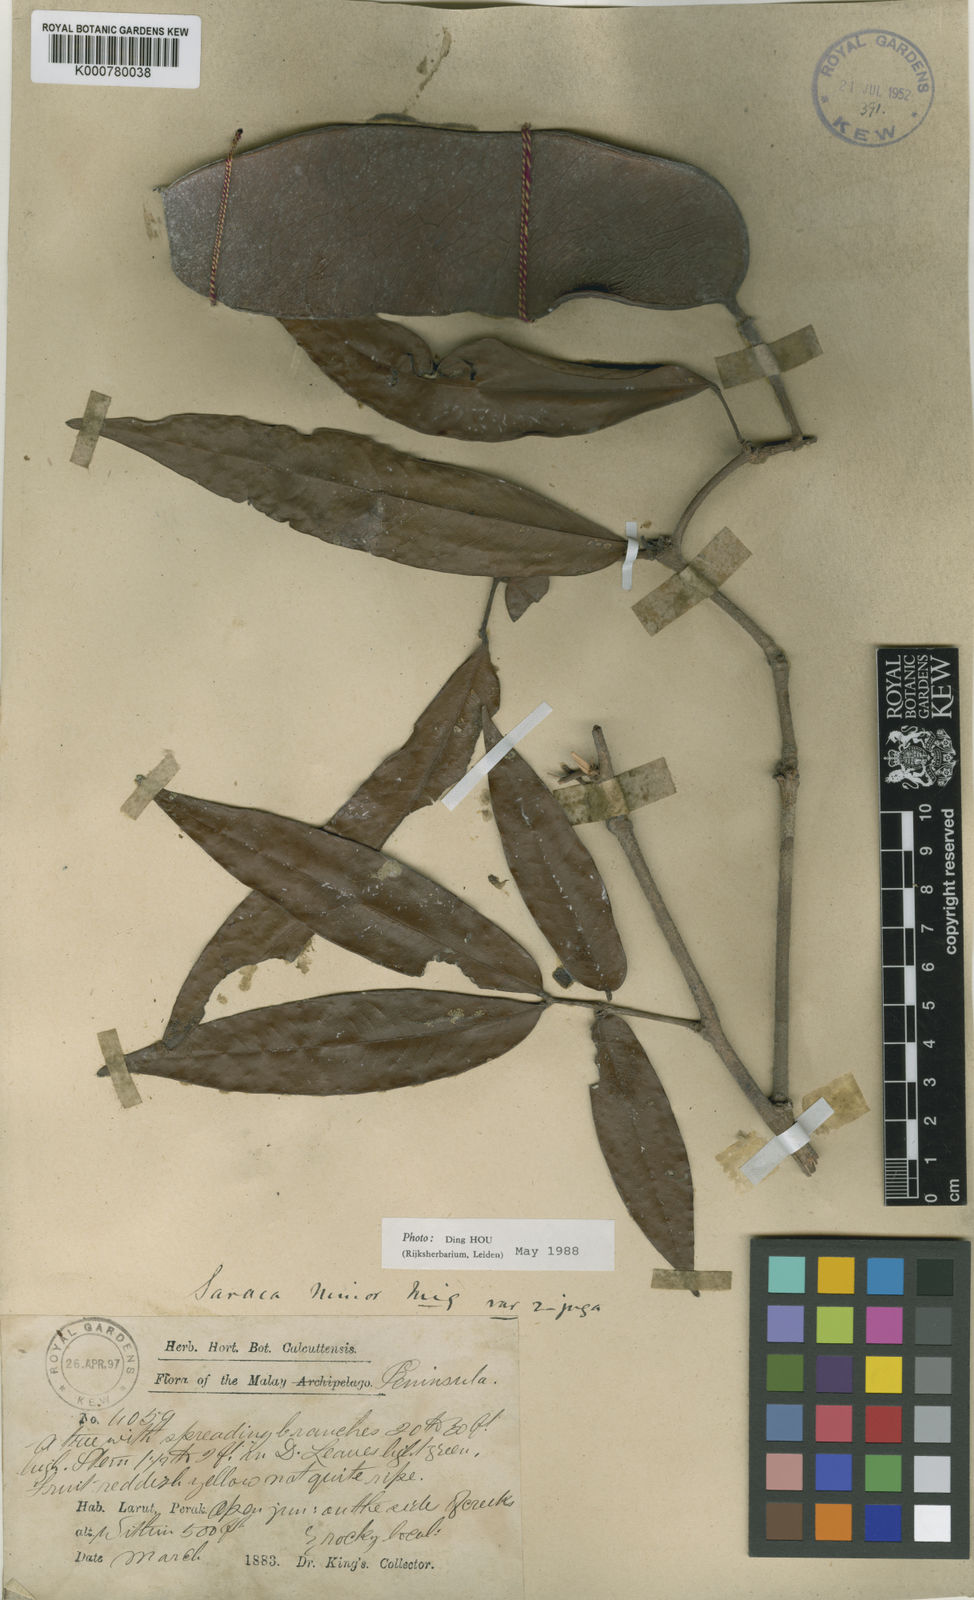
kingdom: Plantae
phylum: Tracheophyta
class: Magnoliopsida
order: Fabales
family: Fabaceae
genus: Saraca
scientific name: Saraca indica
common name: Asoka-tree
